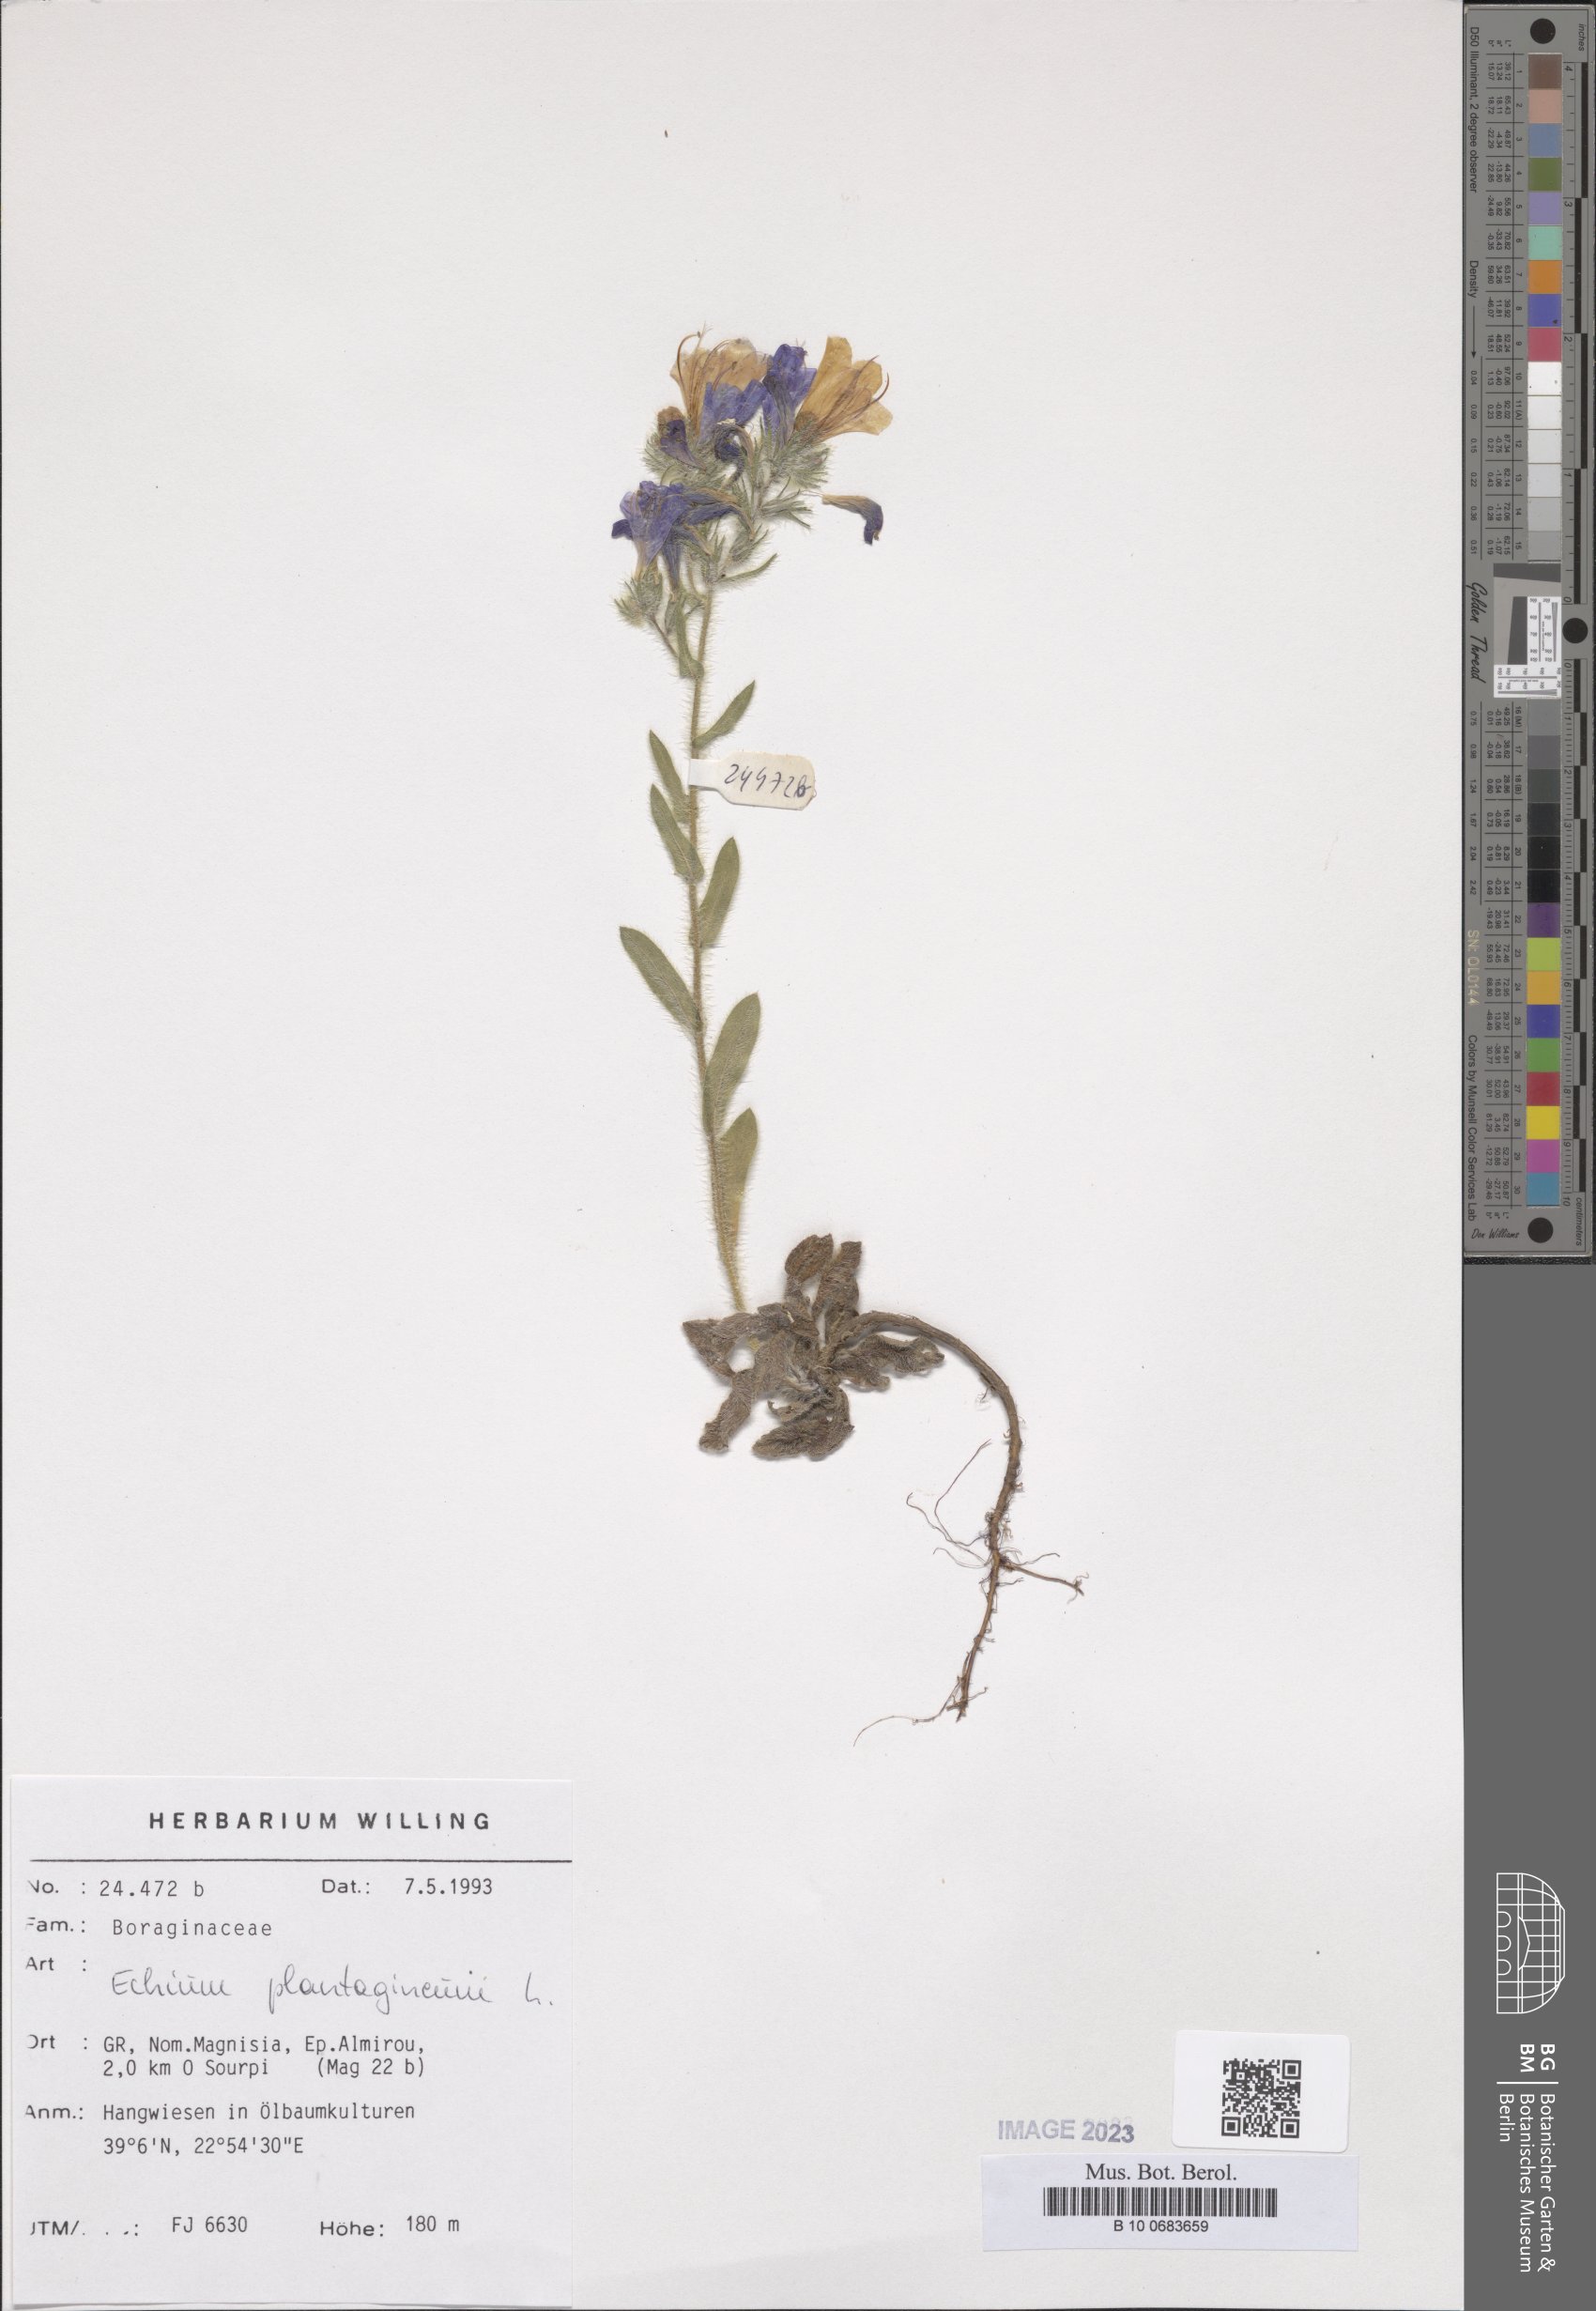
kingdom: Plantae
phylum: Tracheophyta
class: Magnoliopsida
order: Boraginales
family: Boraginaceae
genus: Echium
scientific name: Echium plantagineum
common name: Purple viper's-bugloss
